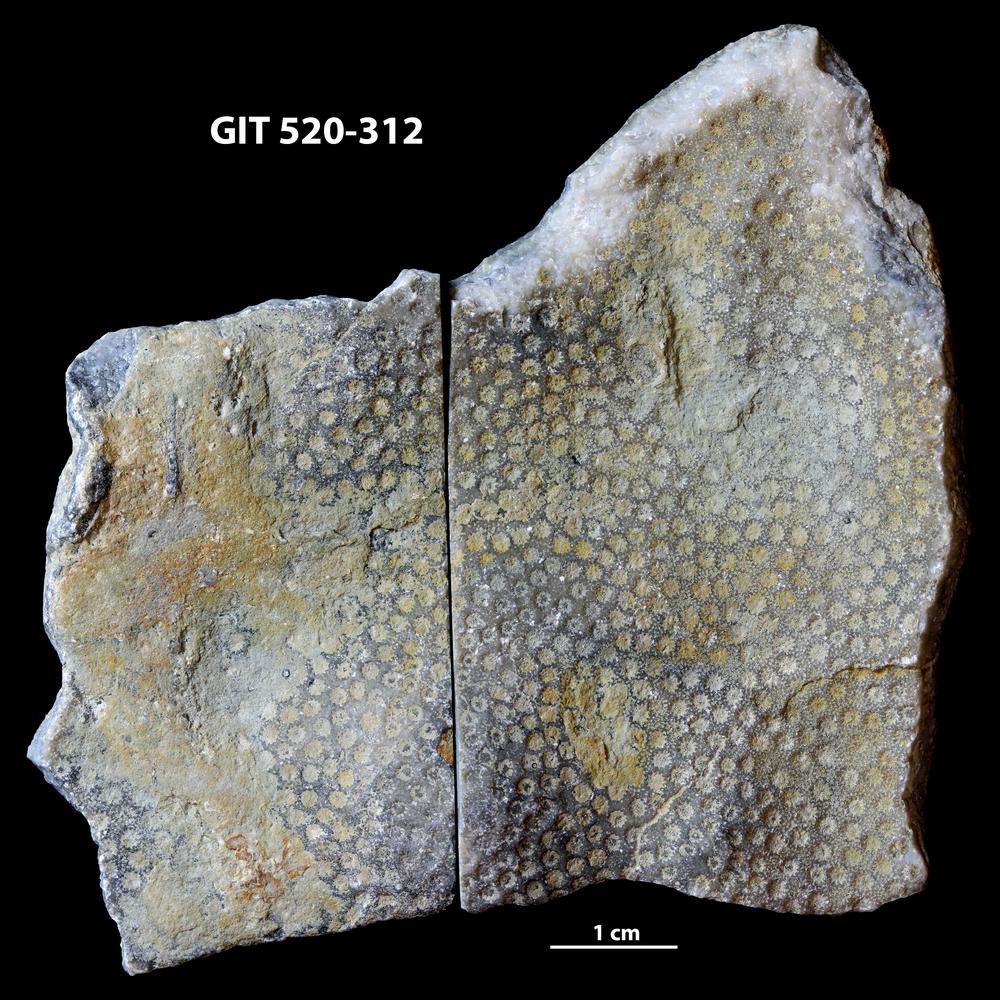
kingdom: Animalia
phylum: Cnidaria
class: Anthozoa
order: Heliolitina
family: Coccoserididae
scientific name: Coccoserididae
